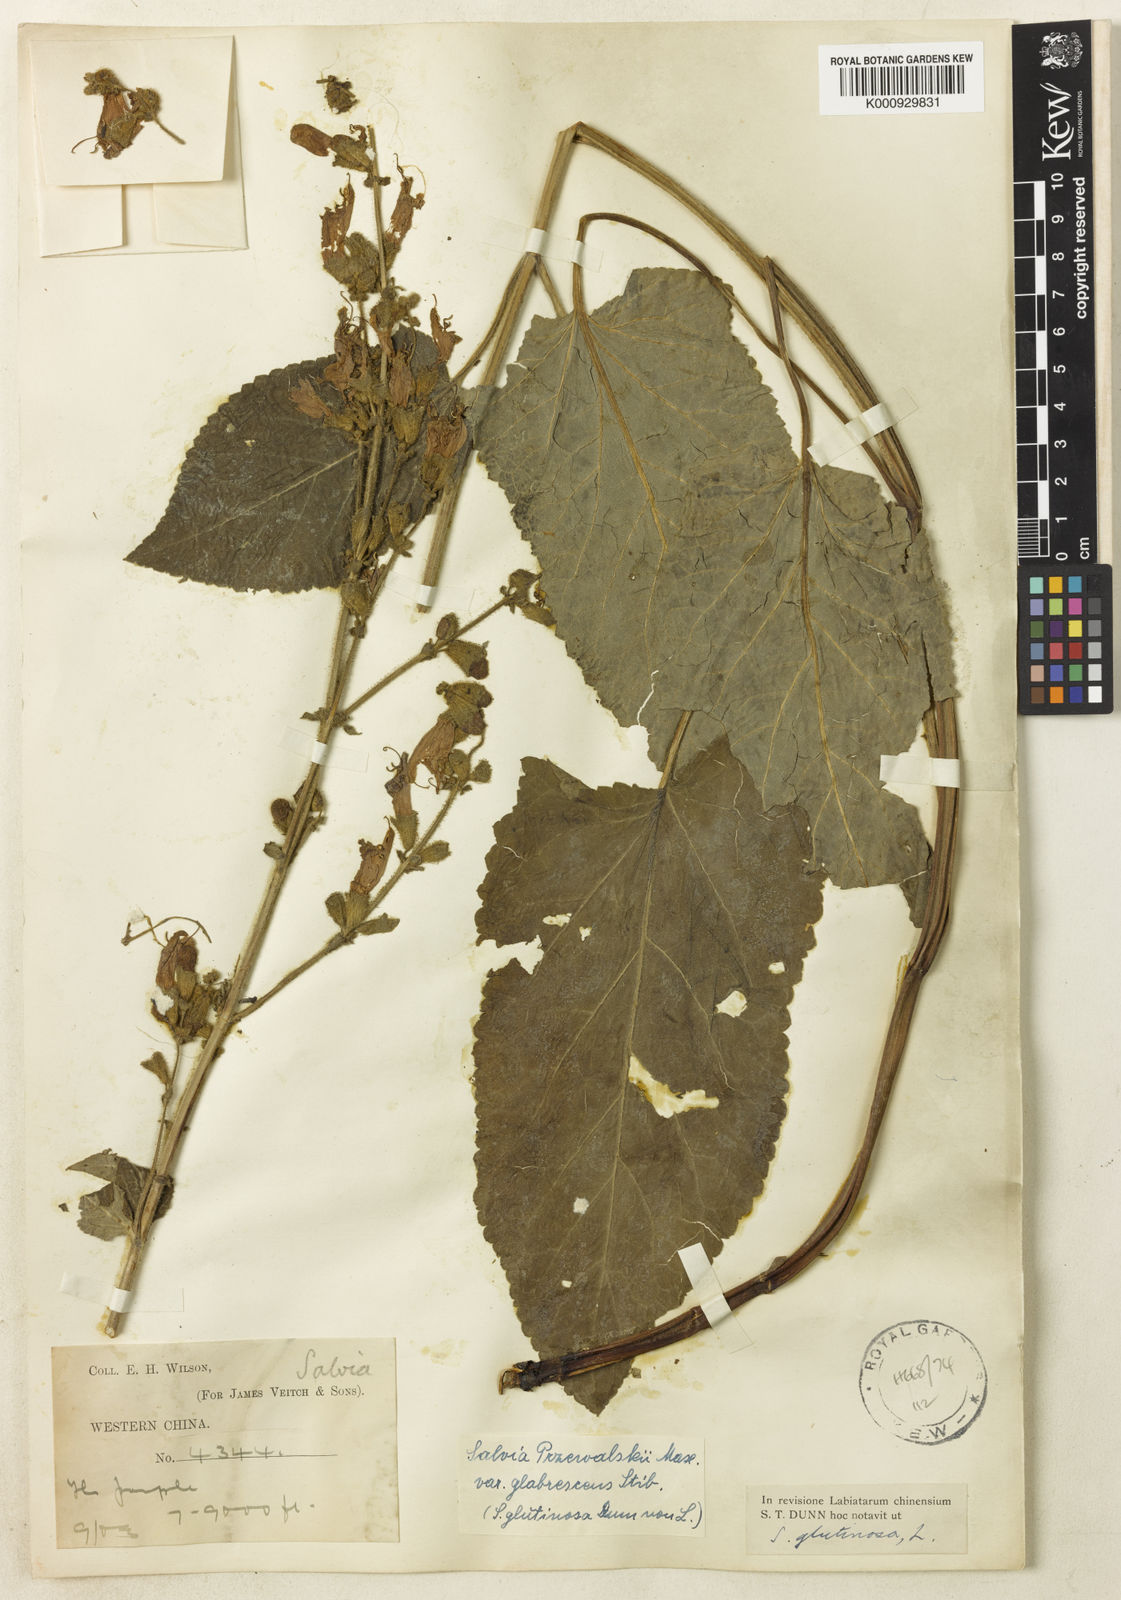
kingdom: Plantae
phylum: Tracheophyta
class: Magnoliopsida
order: Lamiales
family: Lamiaceae
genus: Salvia
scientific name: Salvia przewalskii
